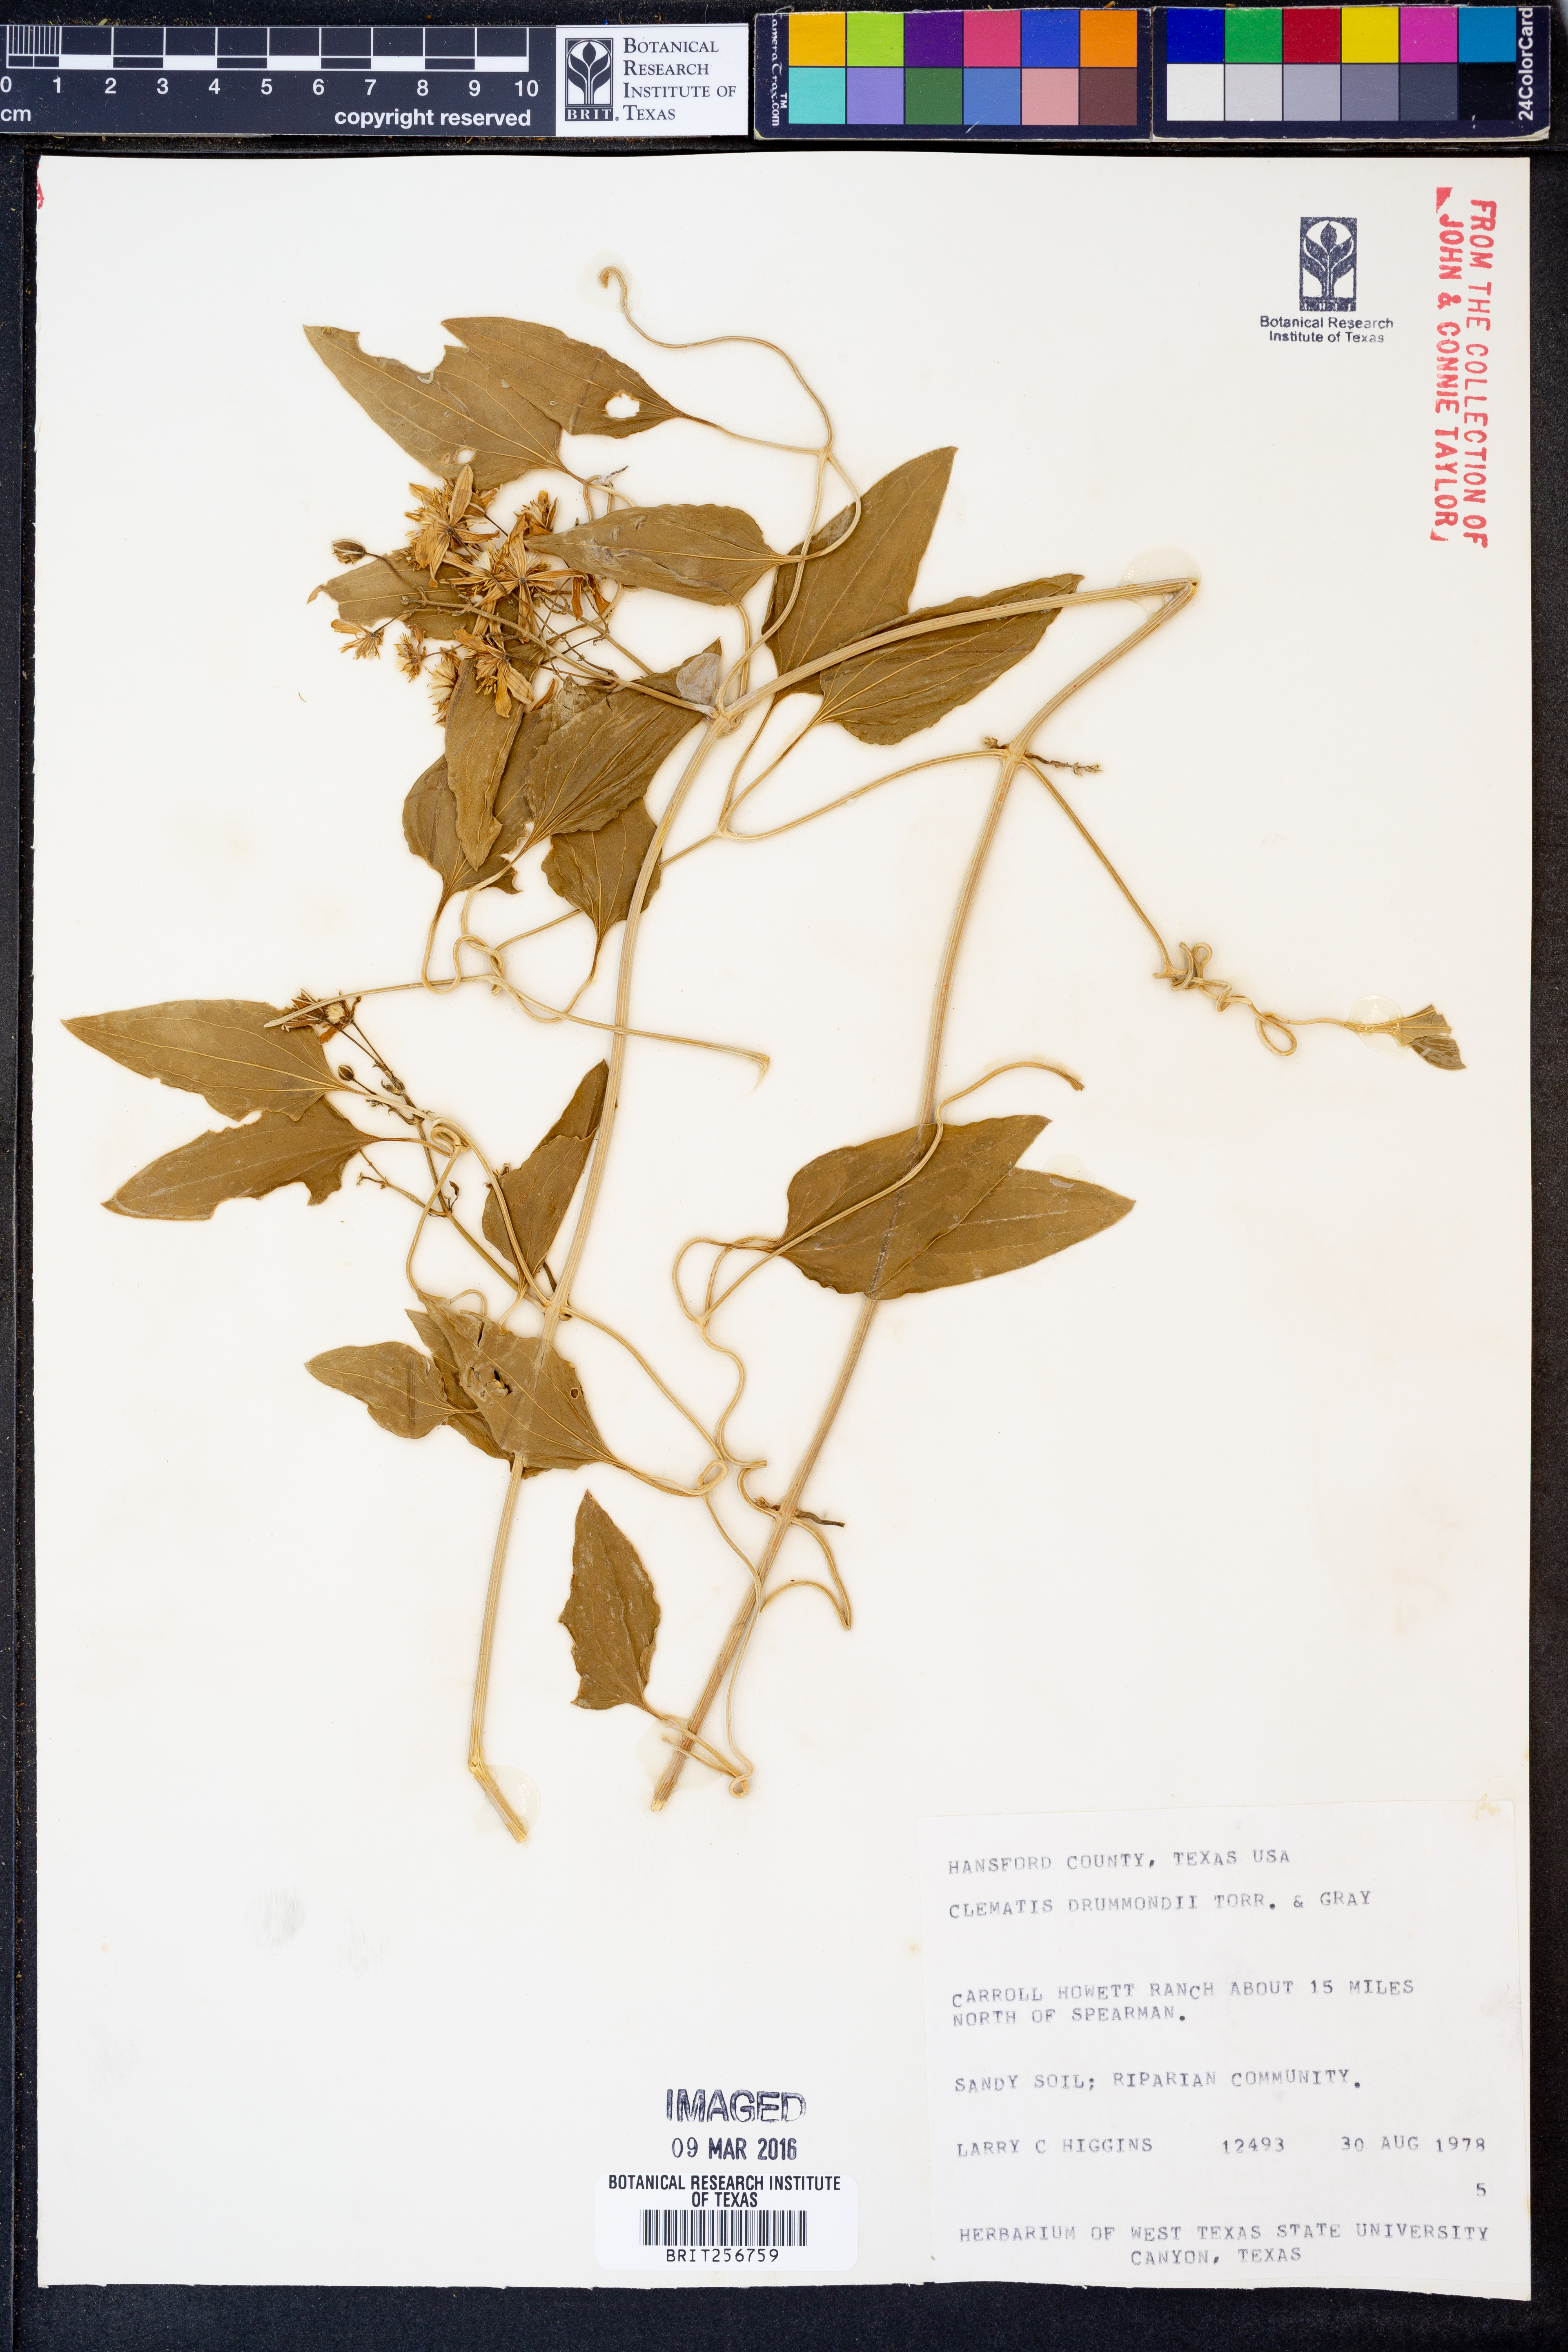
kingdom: Plantae
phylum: Tracheophyta
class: Magnoliopsida
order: Ranunculales
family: Ranunculaceae
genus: Clematis
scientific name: Clematis drummondii
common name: Texas virgin's bower
